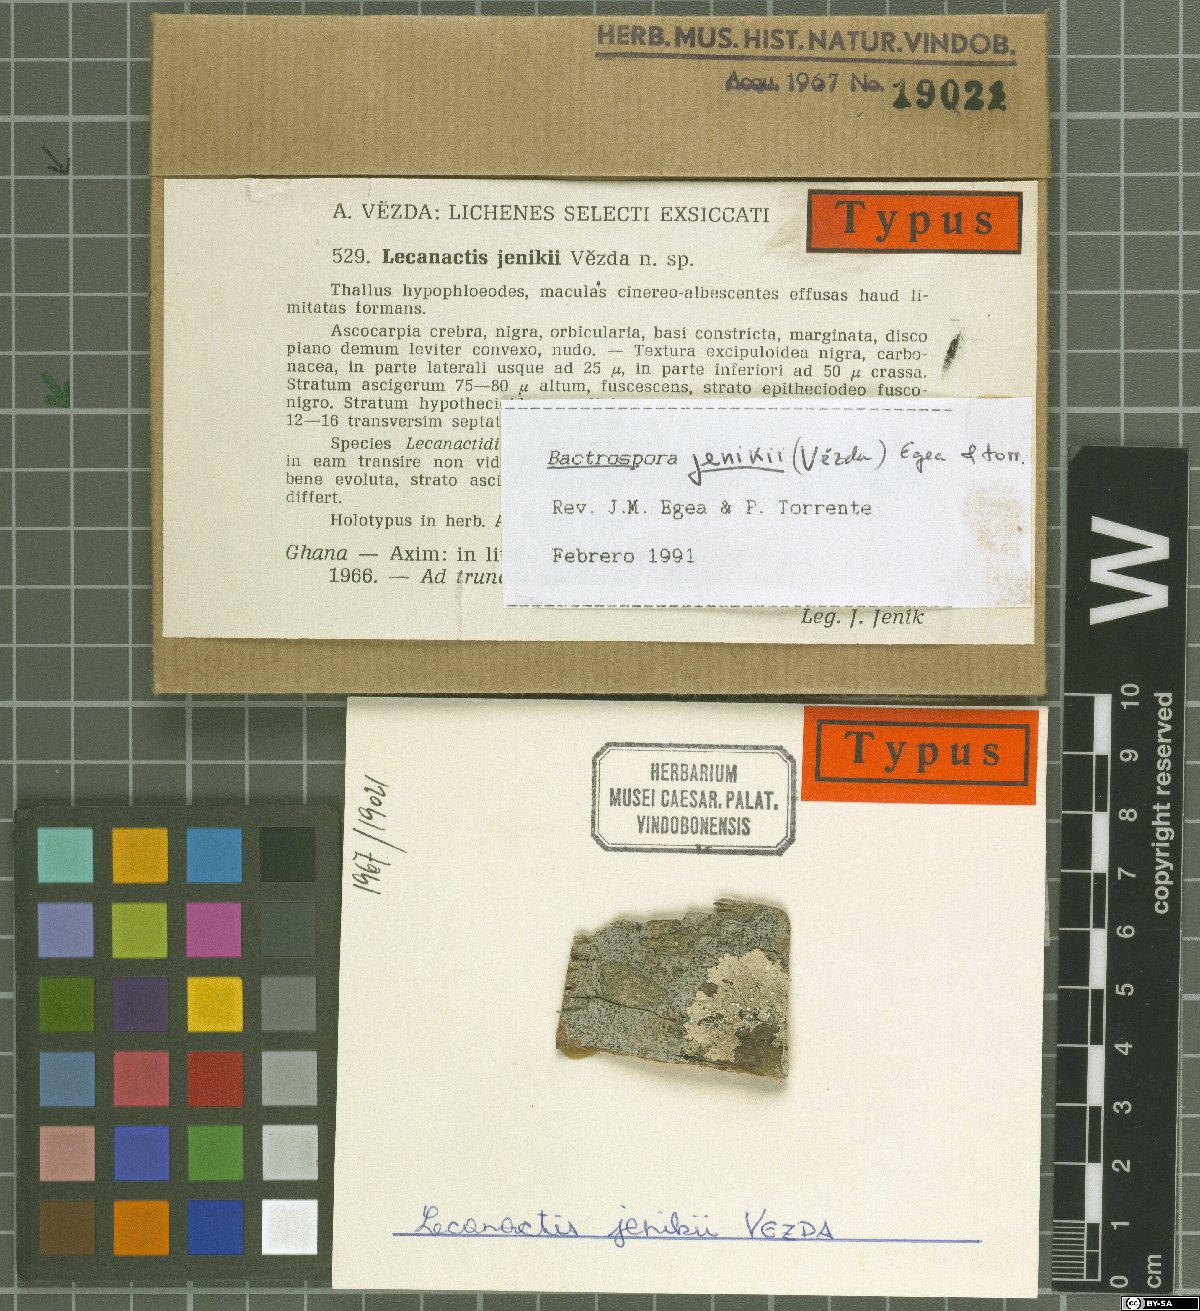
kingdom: Fungi
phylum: Ascomycota
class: Arthoniomycetes
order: Arthoniales
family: Roccellaceae
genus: Bactrospora
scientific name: Bactrospora jenikii
